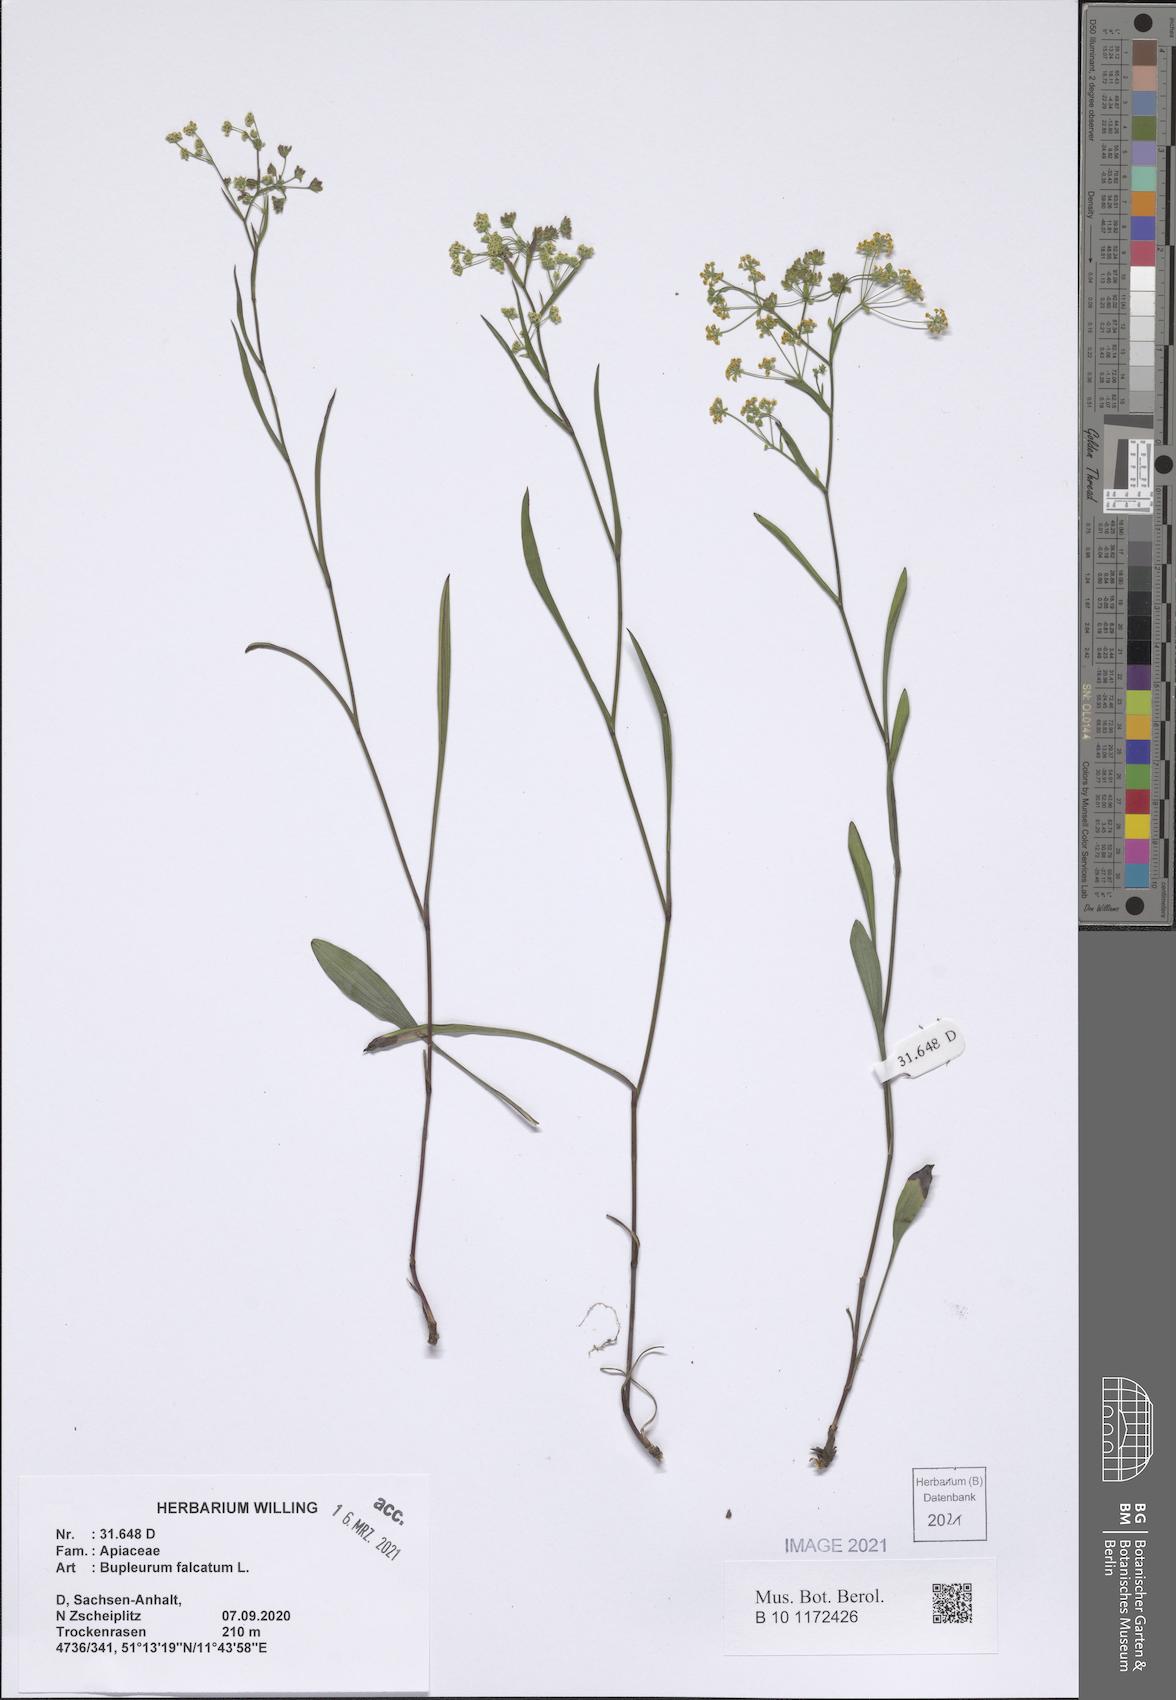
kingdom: Plantae
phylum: Tracheophyta
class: Magnoliopsida
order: Apiales
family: Apiaceae
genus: Bupleurum
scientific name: Bupleurum falcatum
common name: Sickle-leaved hare's-ear
